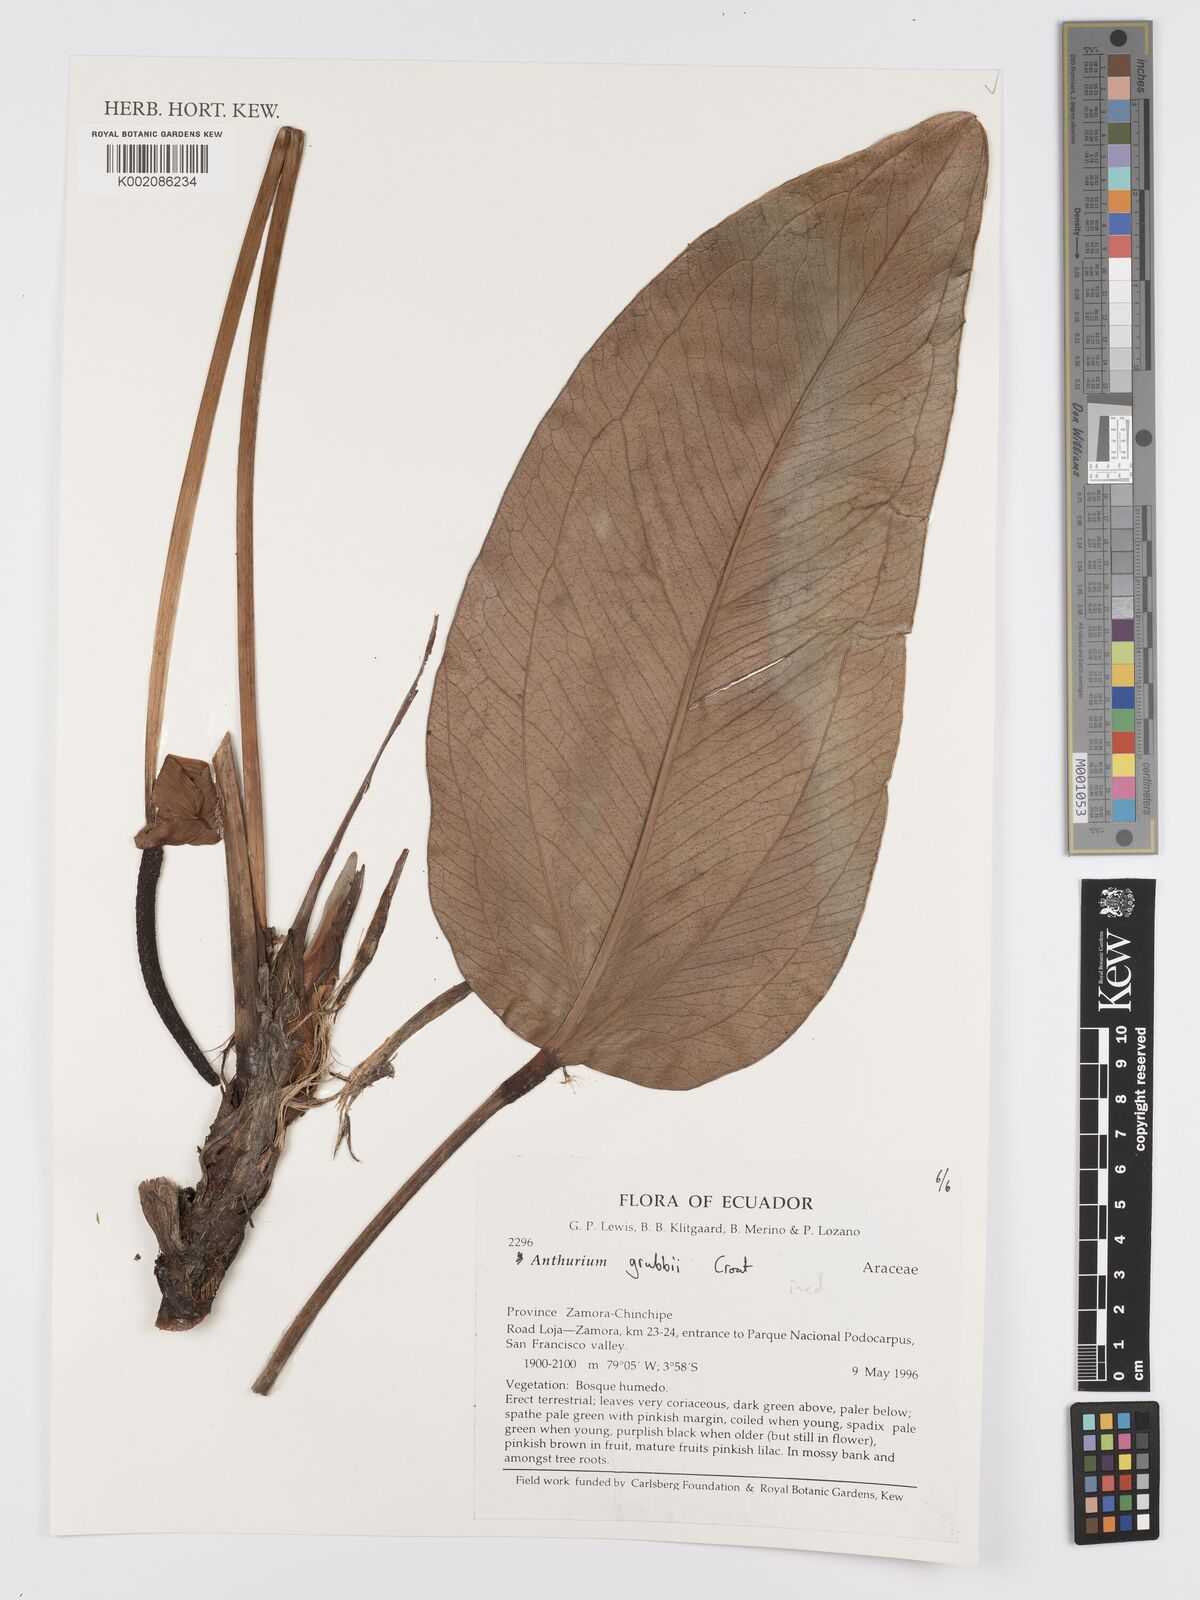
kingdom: Plantae
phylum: Tracheophyta
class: Liliopsida
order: Alismatales
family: Araceae
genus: Anthurium
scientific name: Anthurium
